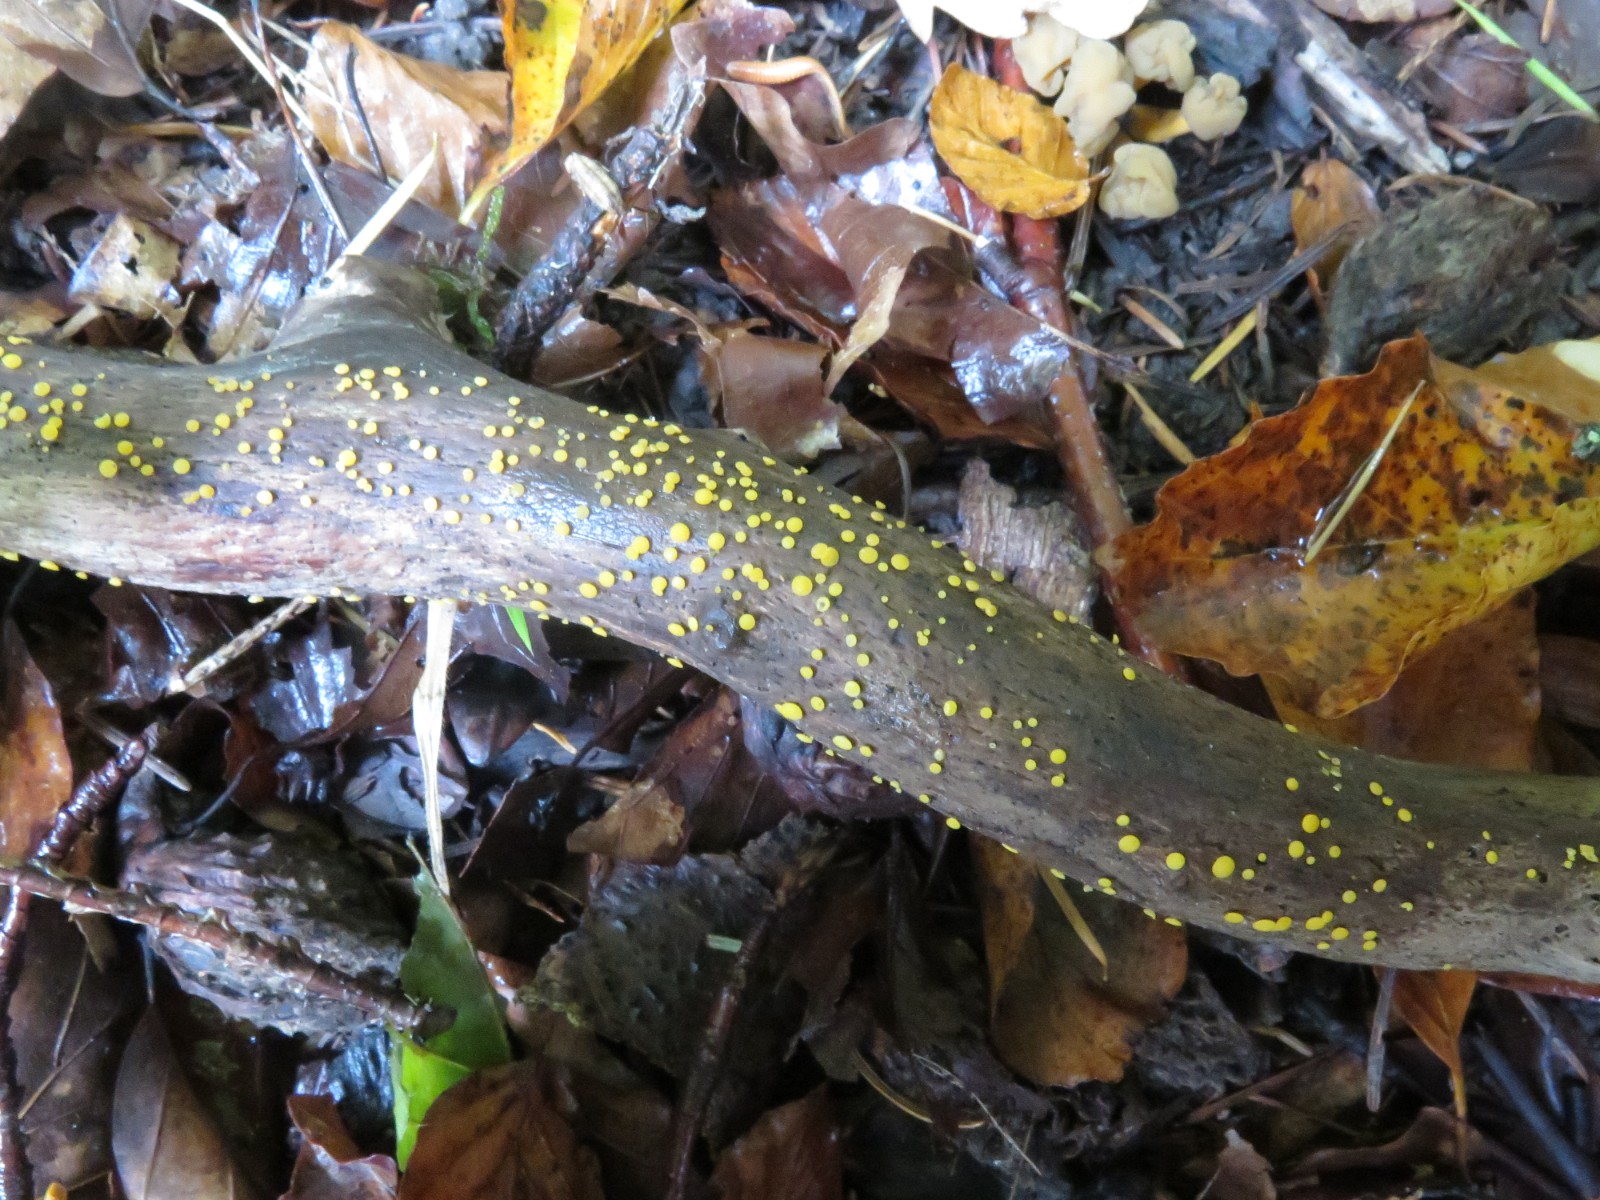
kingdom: Fungi
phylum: Ascomycota
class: Leotiomycetes
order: Helotiales
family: Pezizellaceae
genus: Calycina
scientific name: Calycina citrina
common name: almindelig gulskive
